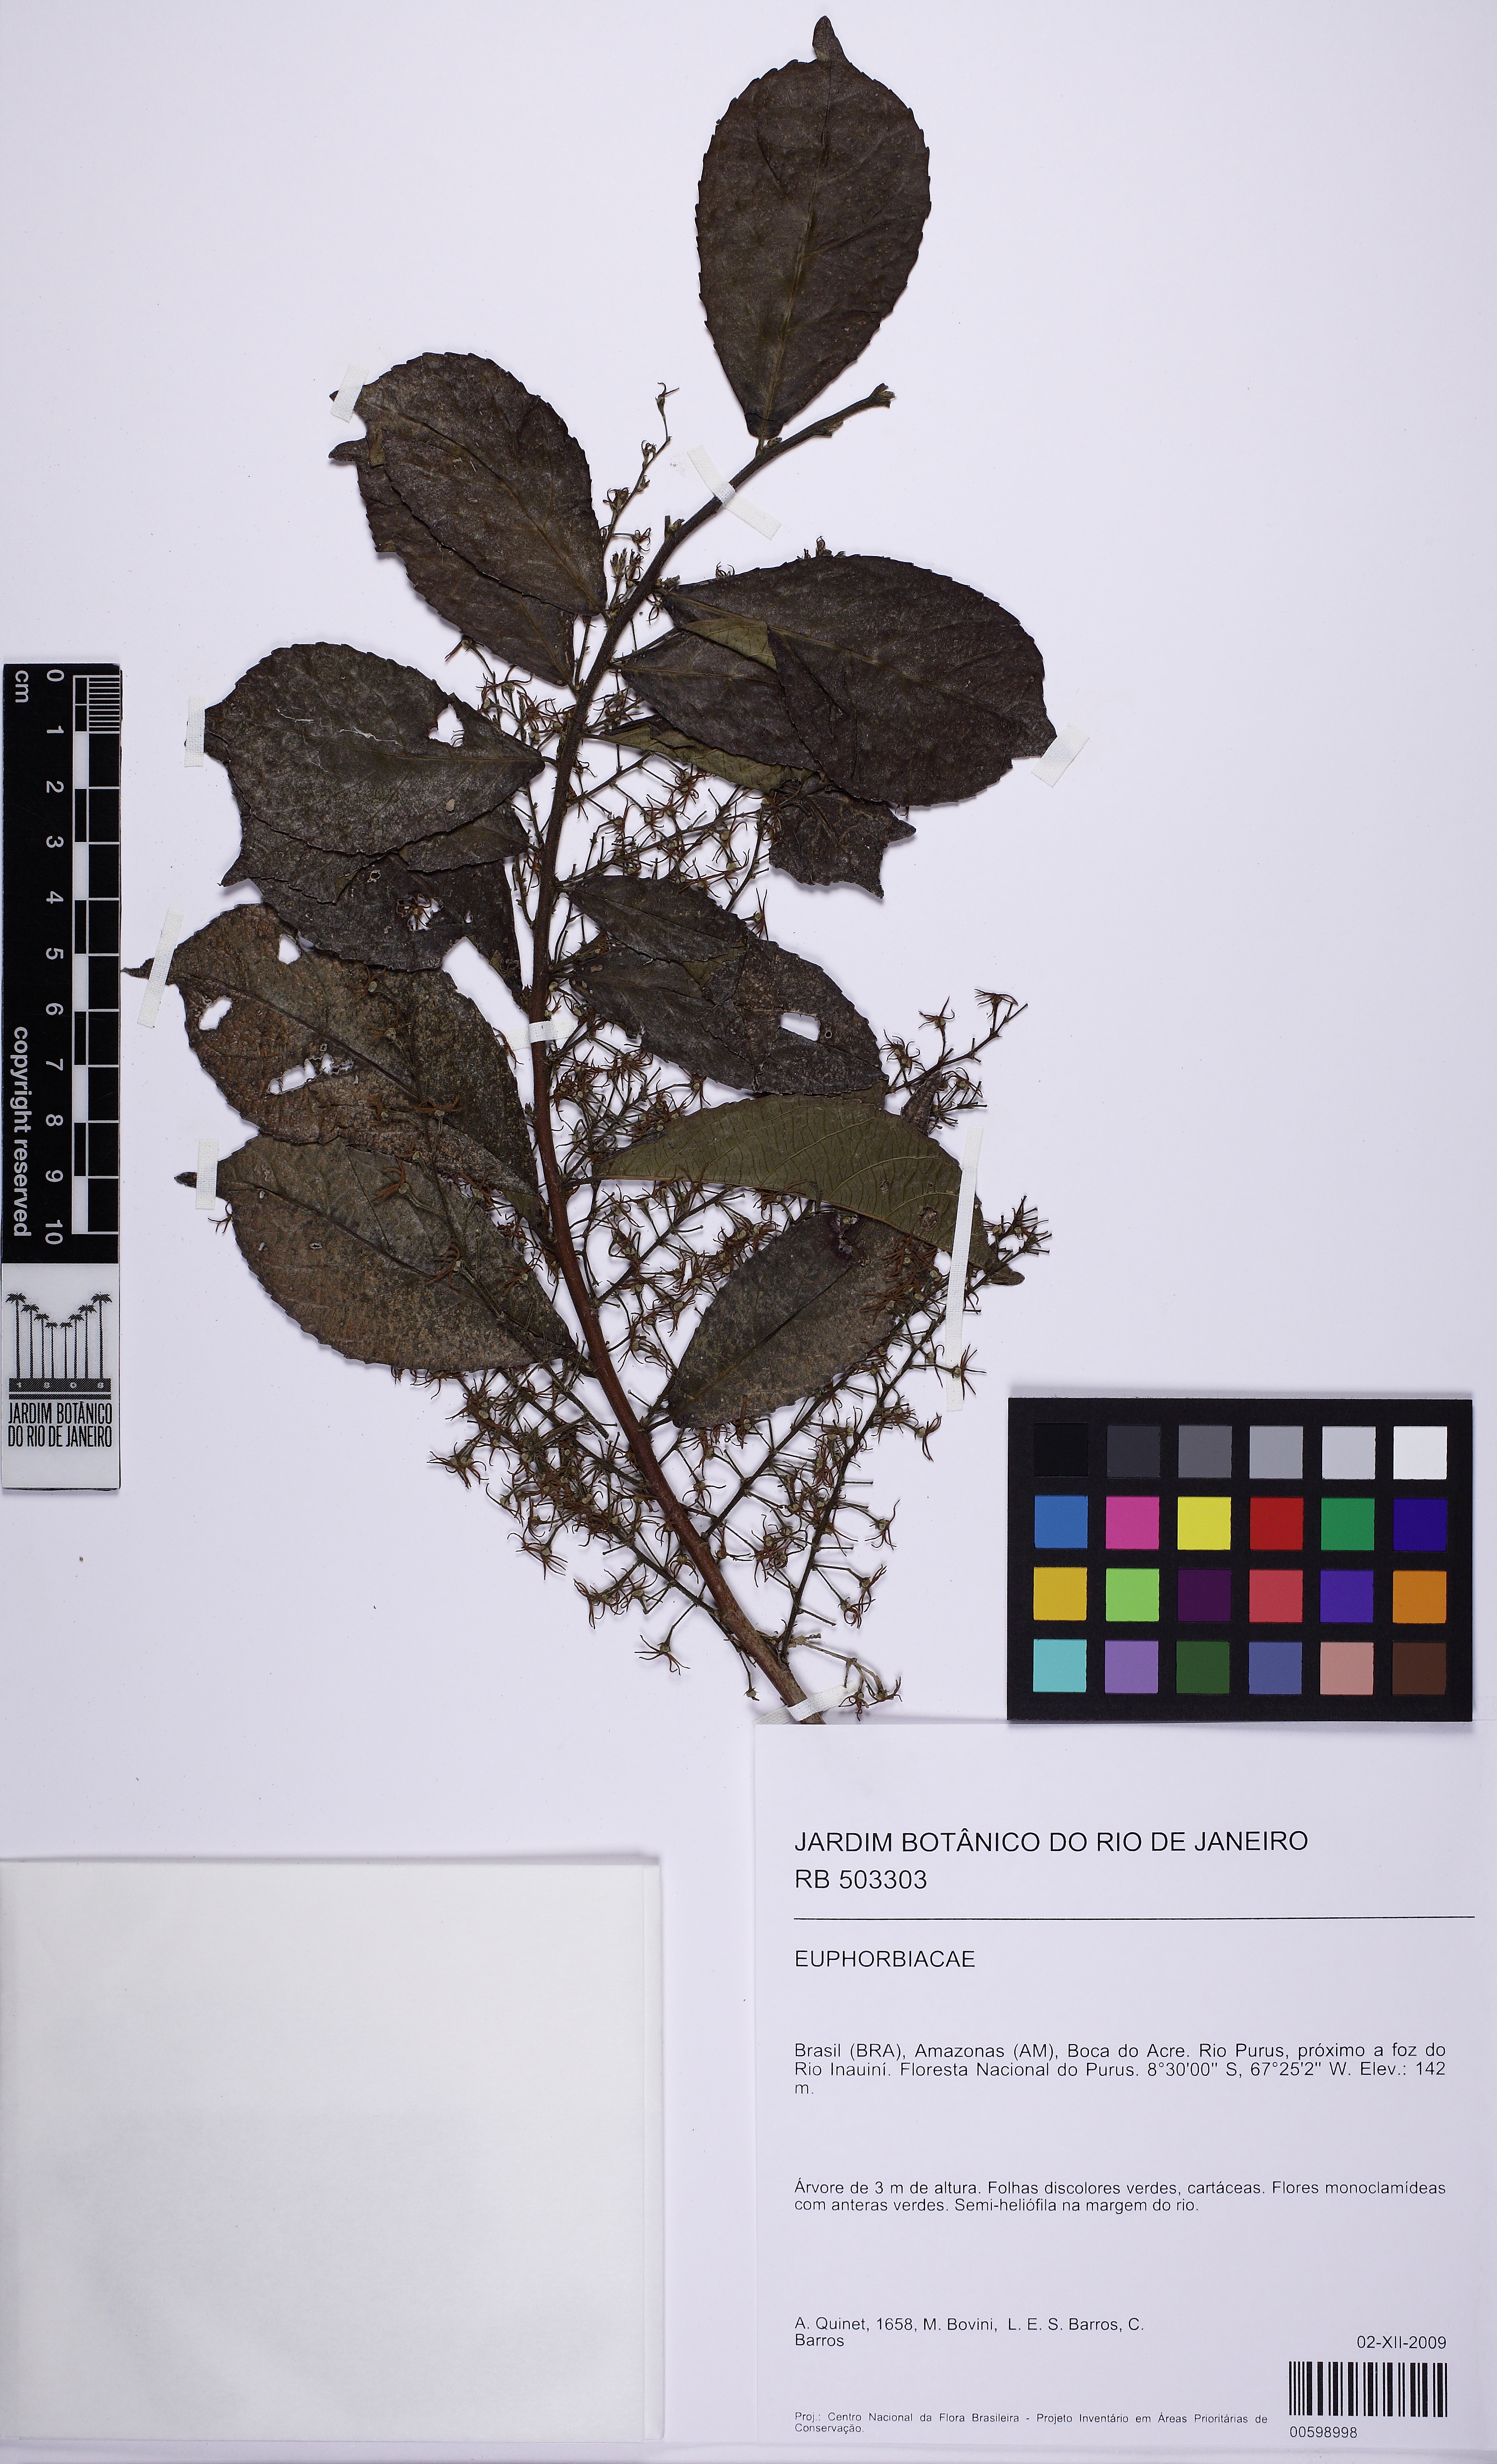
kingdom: Plantae
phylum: Tracheophyta
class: Magnoliopsida
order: Malpighiales
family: Euphorbiaceae
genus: Cleidion
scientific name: Cleidion
